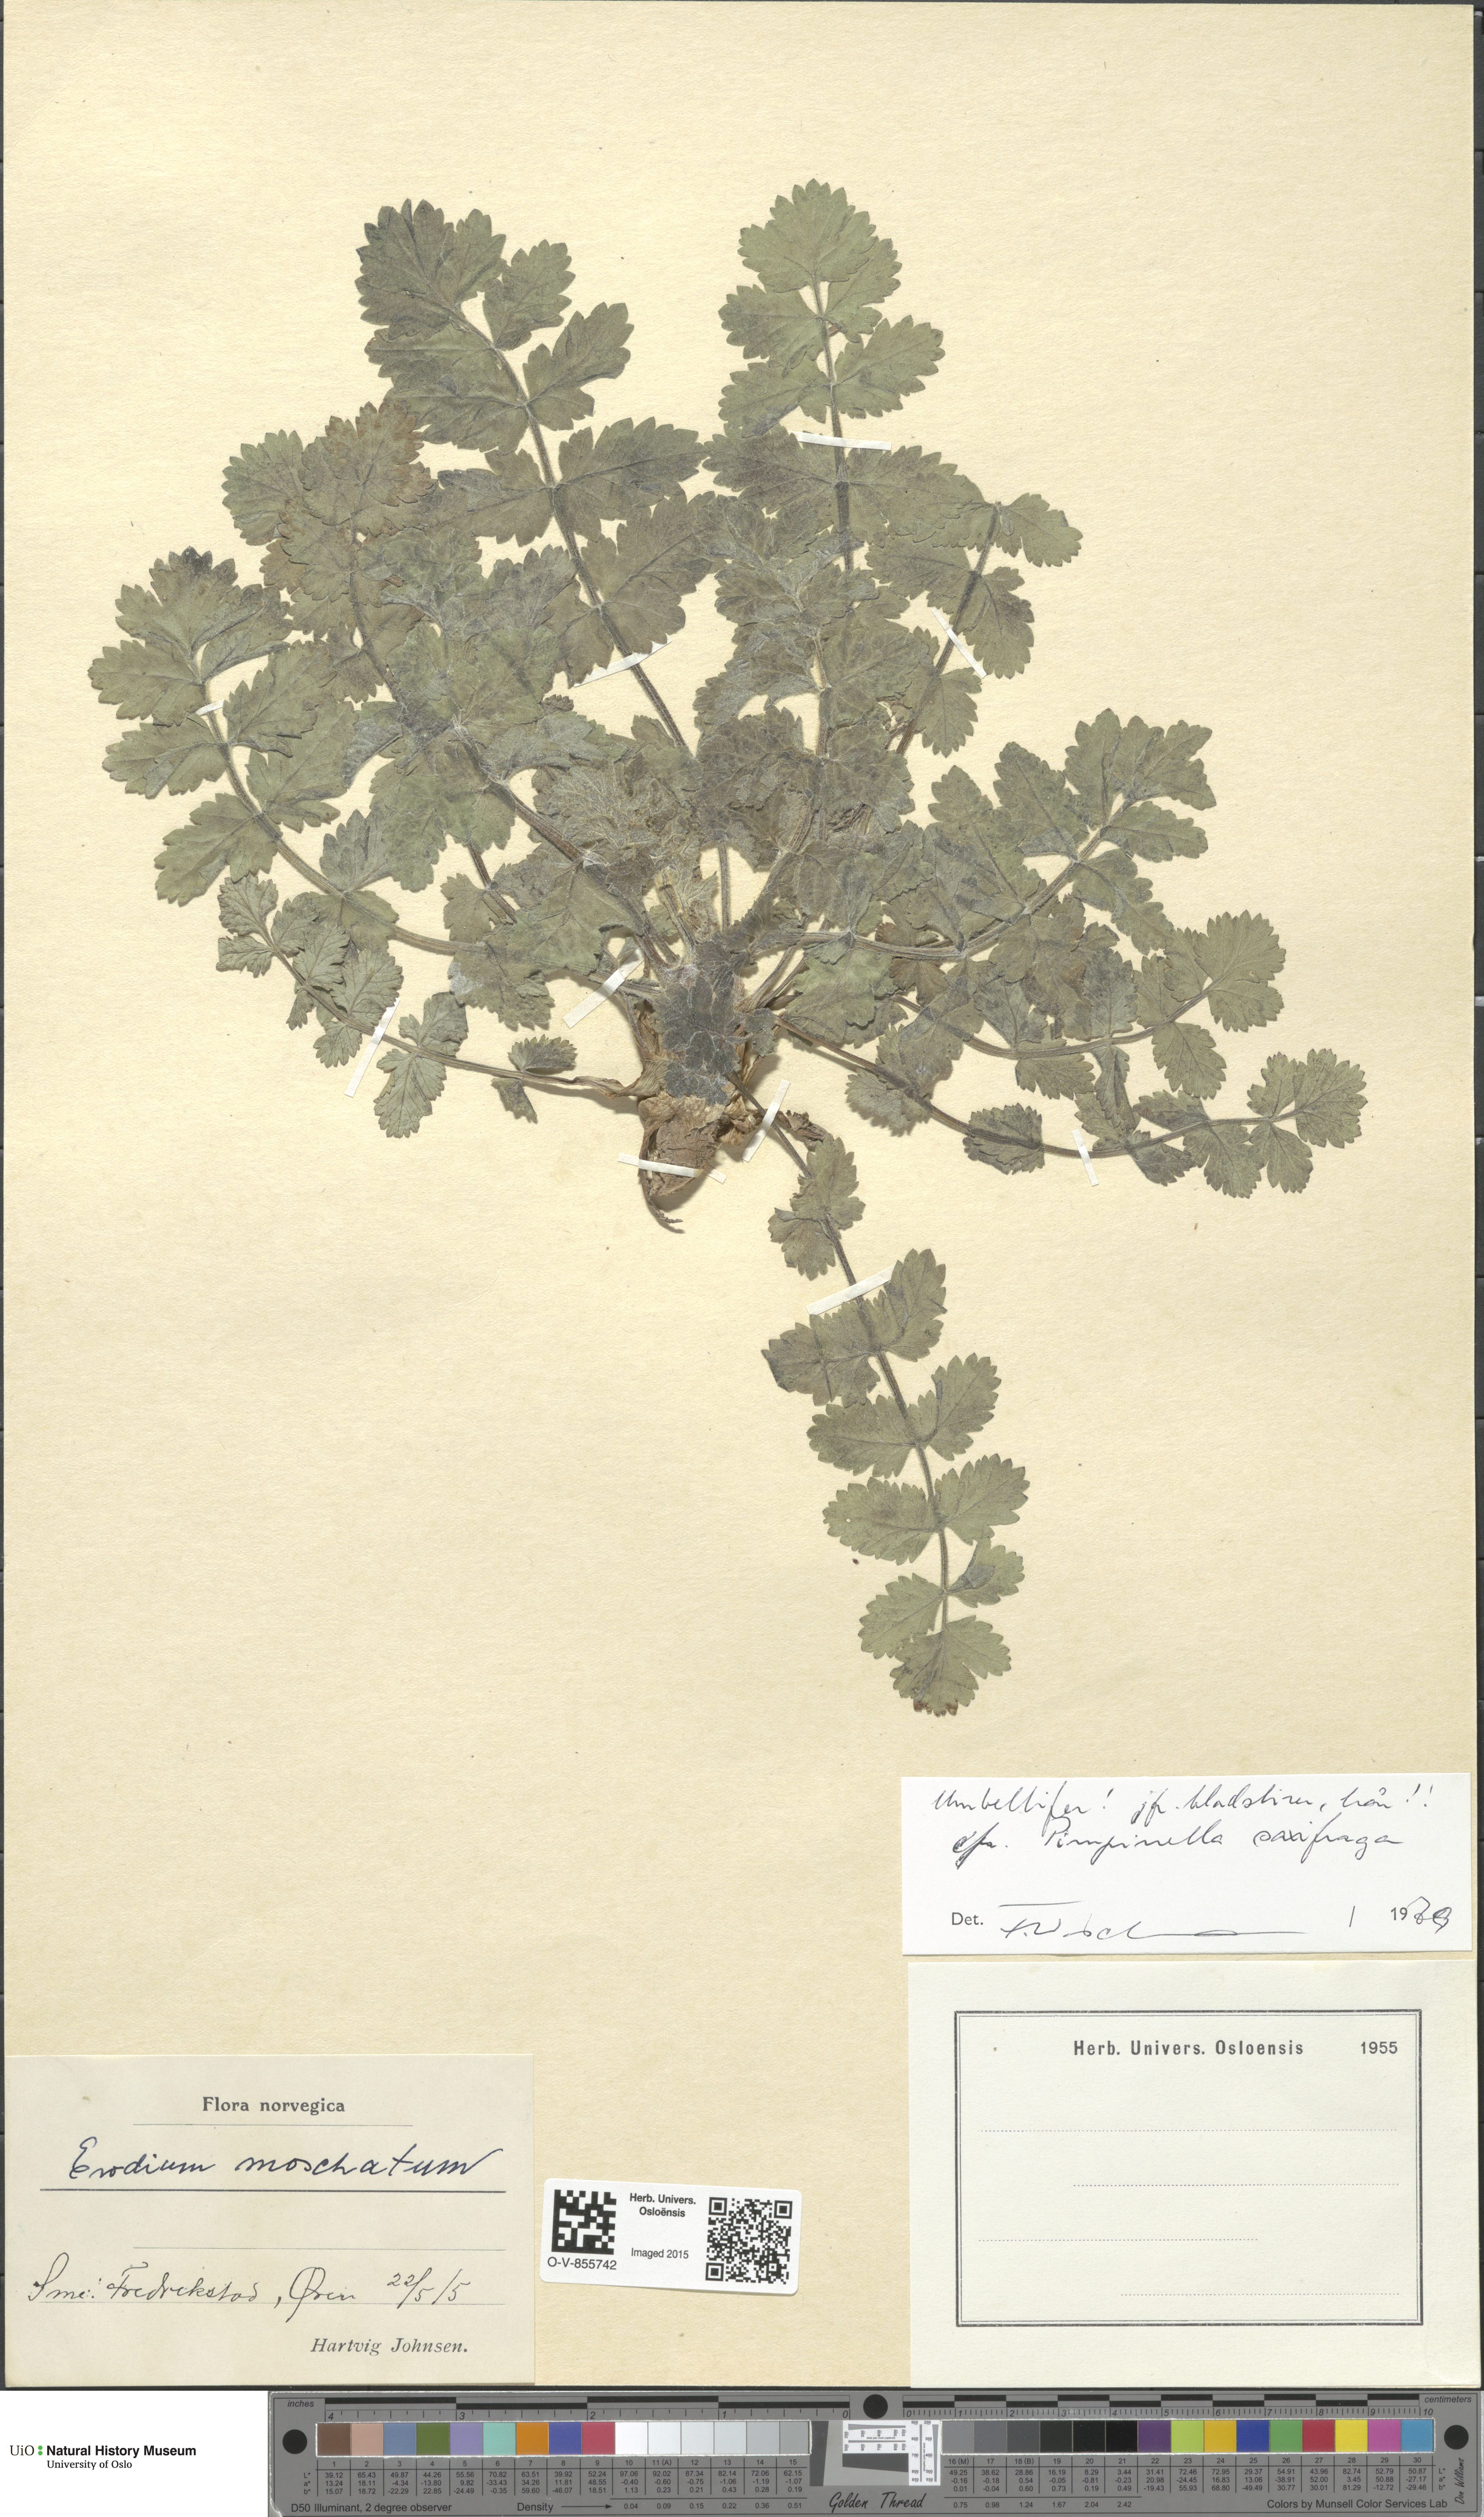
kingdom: Plantae
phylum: Tracheophyta
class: Magnoliopsida
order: Apiales
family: Apiaceae
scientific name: Apiaceae
